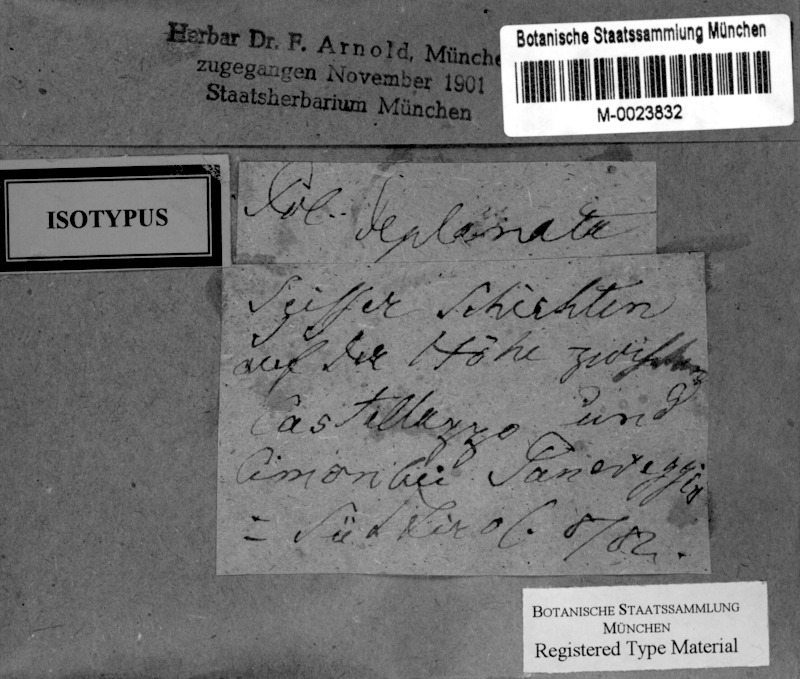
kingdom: Fungi
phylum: Ascomycota
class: Eurotiomycetes
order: Verrucariales
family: Verrucariaceae
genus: Polyblastia
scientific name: Polyblastia deplanata
